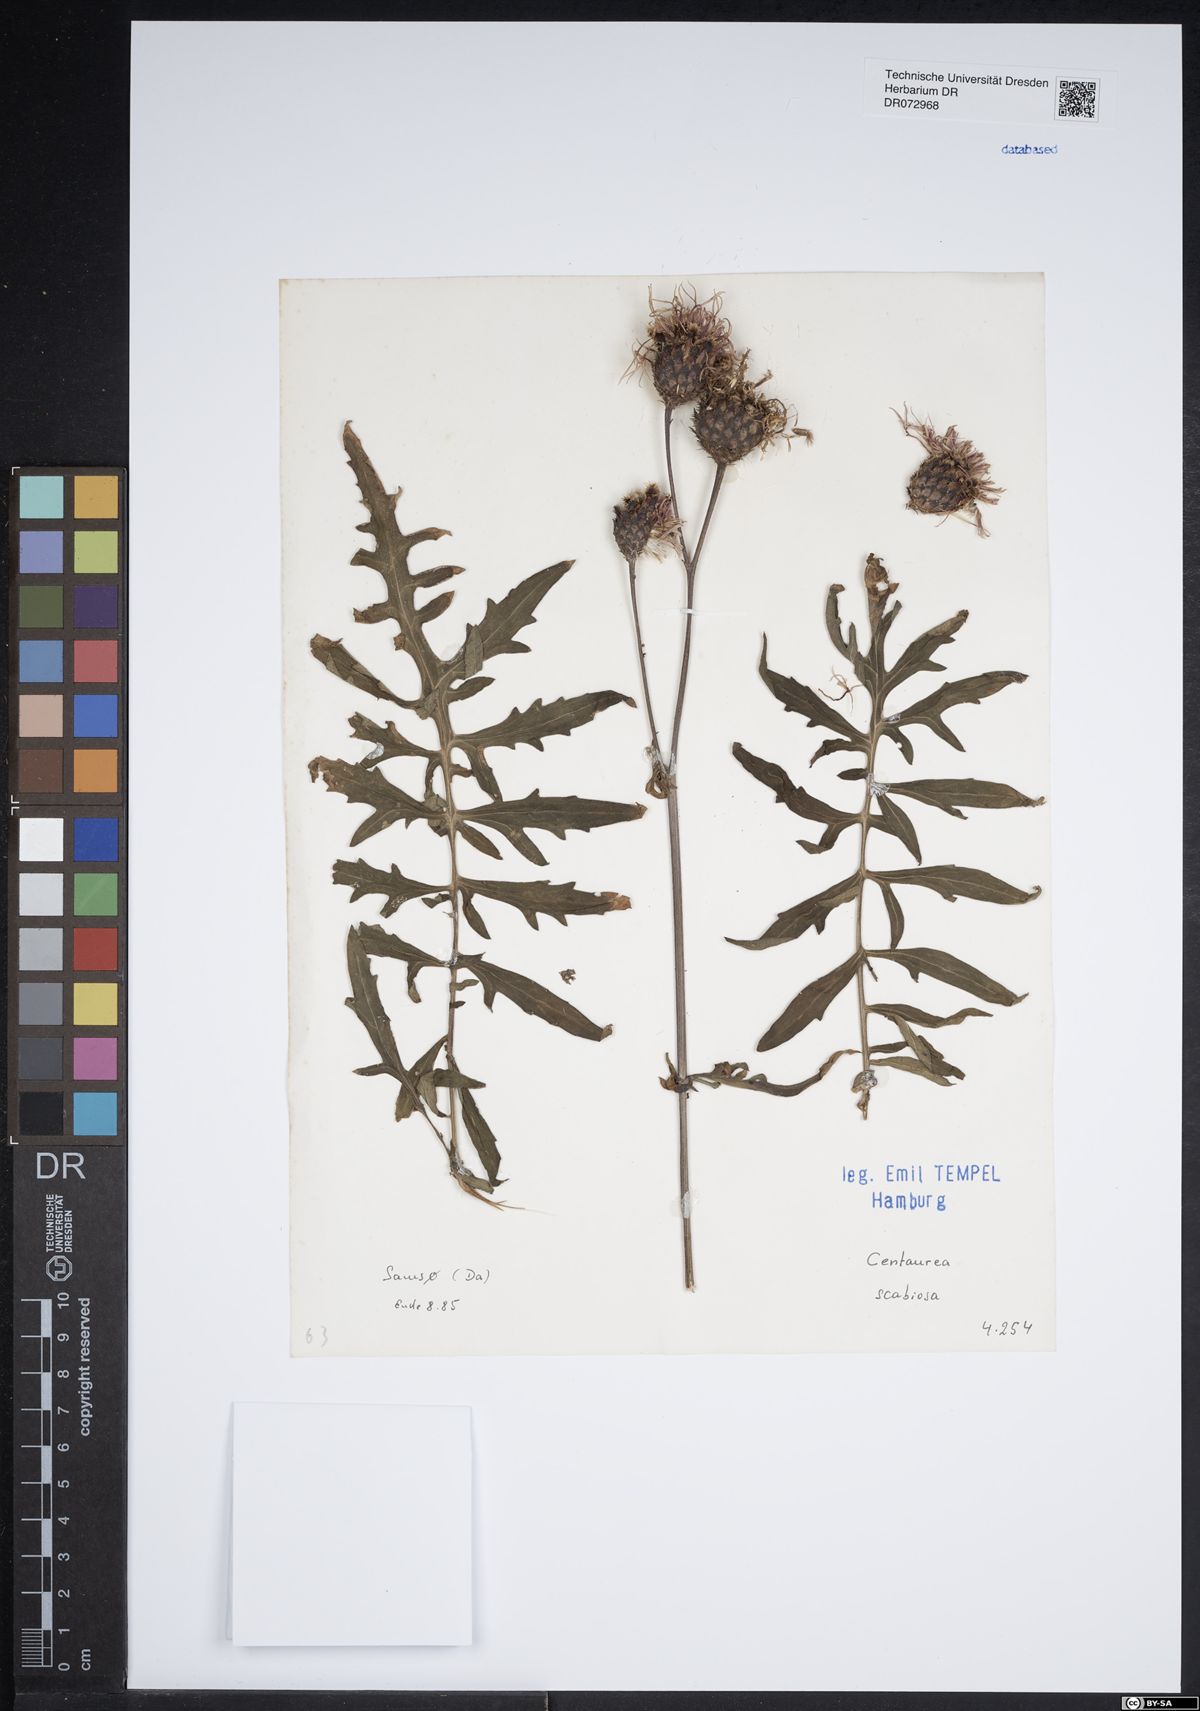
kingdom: Plantae
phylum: Tracheophyta
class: Magnoliopsida
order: Asterales
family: Asteraceae
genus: Centaurea
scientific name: Centaurea scabiosa
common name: Greater knapweed
